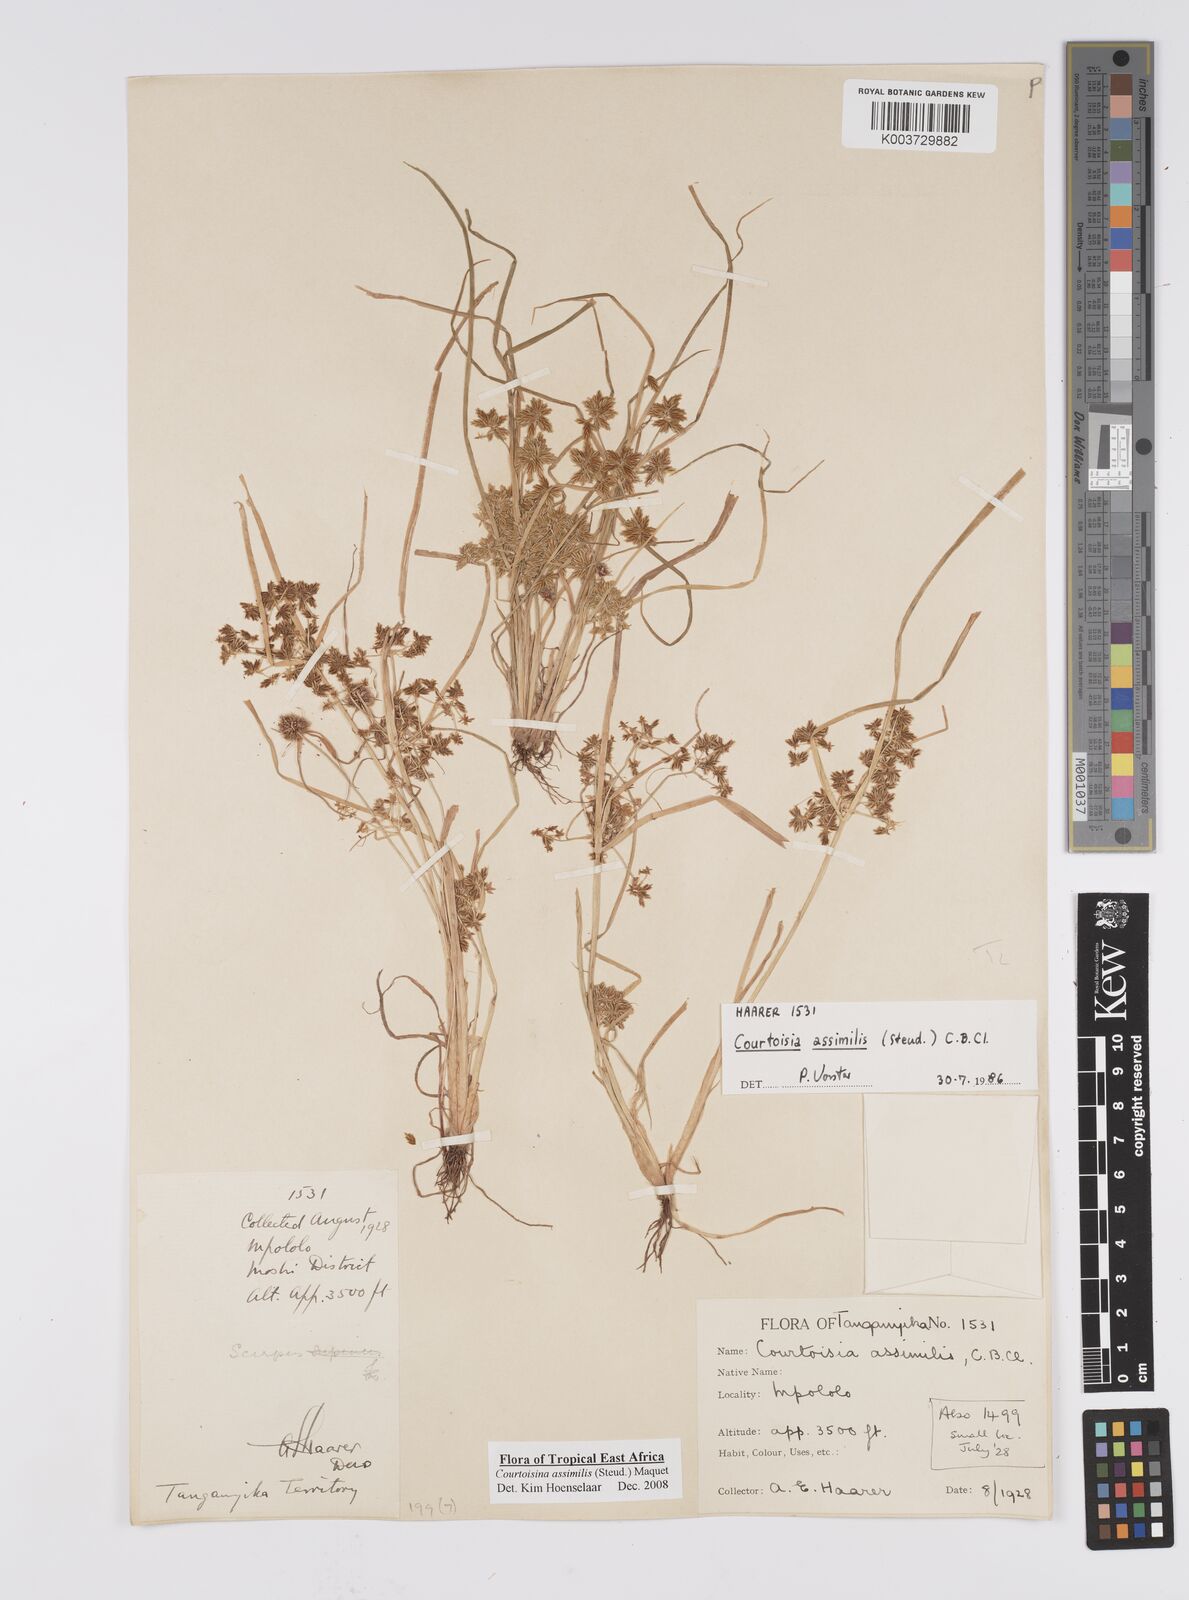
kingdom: Plantae
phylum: Tracheophyta
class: Liliopsida
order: Poales
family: Cyperaceae
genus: Cyperus
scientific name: Cyperus assimilis
